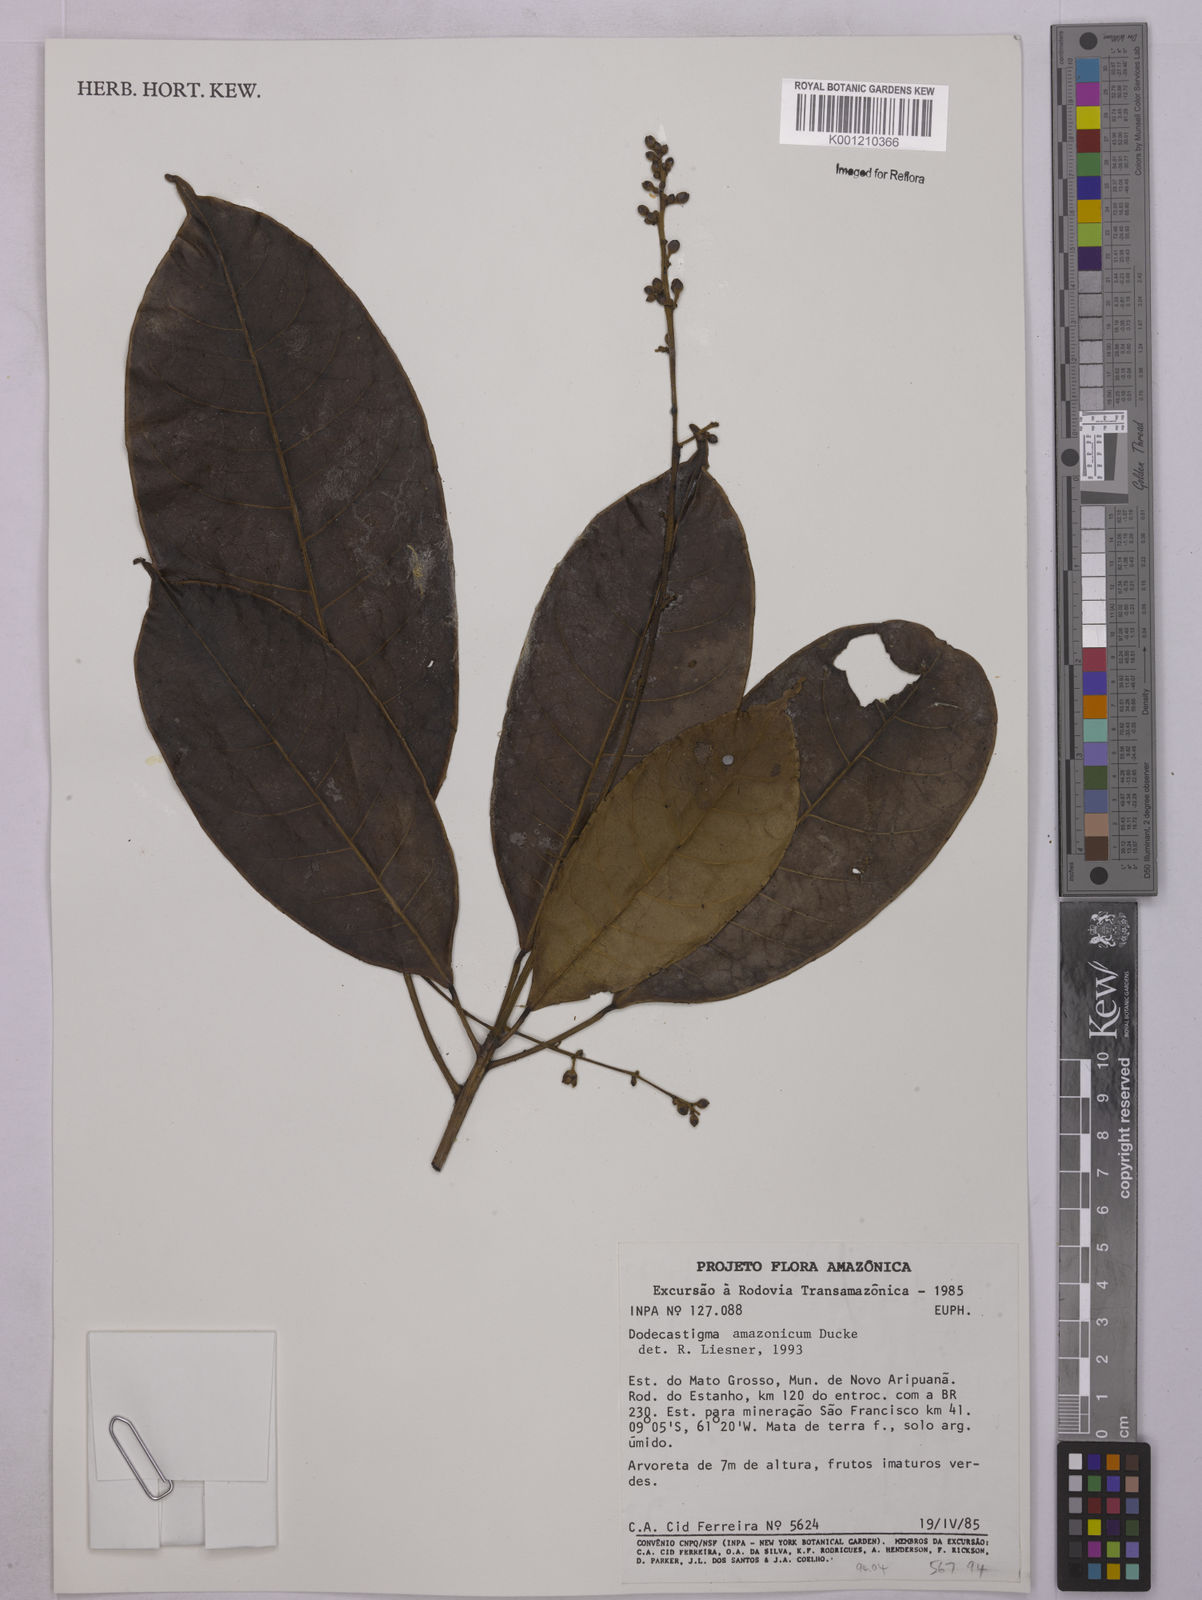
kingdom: Plantae
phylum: Tracheophyta
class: Magnoliopsida
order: Malpighiales
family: Euphorbiaceae
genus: Dodecastigma
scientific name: Dodecastigma amazonicum
